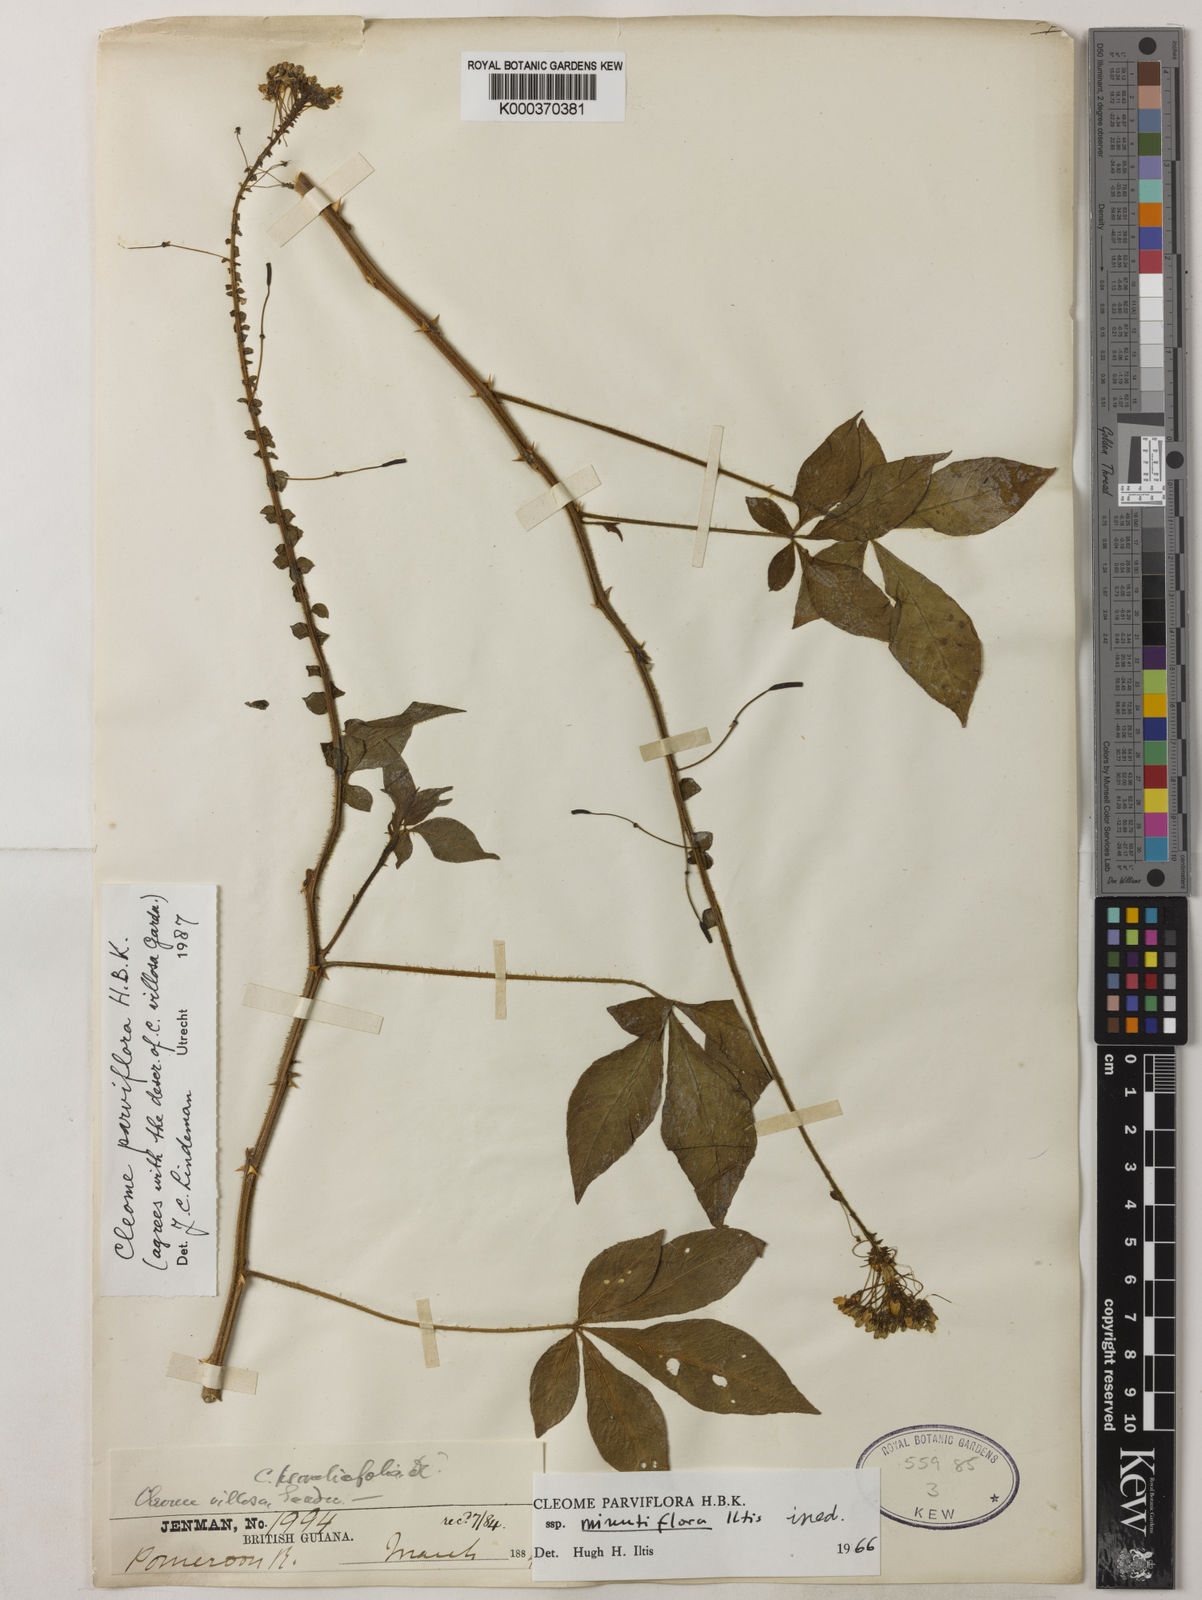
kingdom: Plantae
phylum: Tracheophyta
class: Magnoliopsida
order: Brassicales
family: Cleomaceae
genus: Tarenaya
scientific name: Tarenaya parviflora
